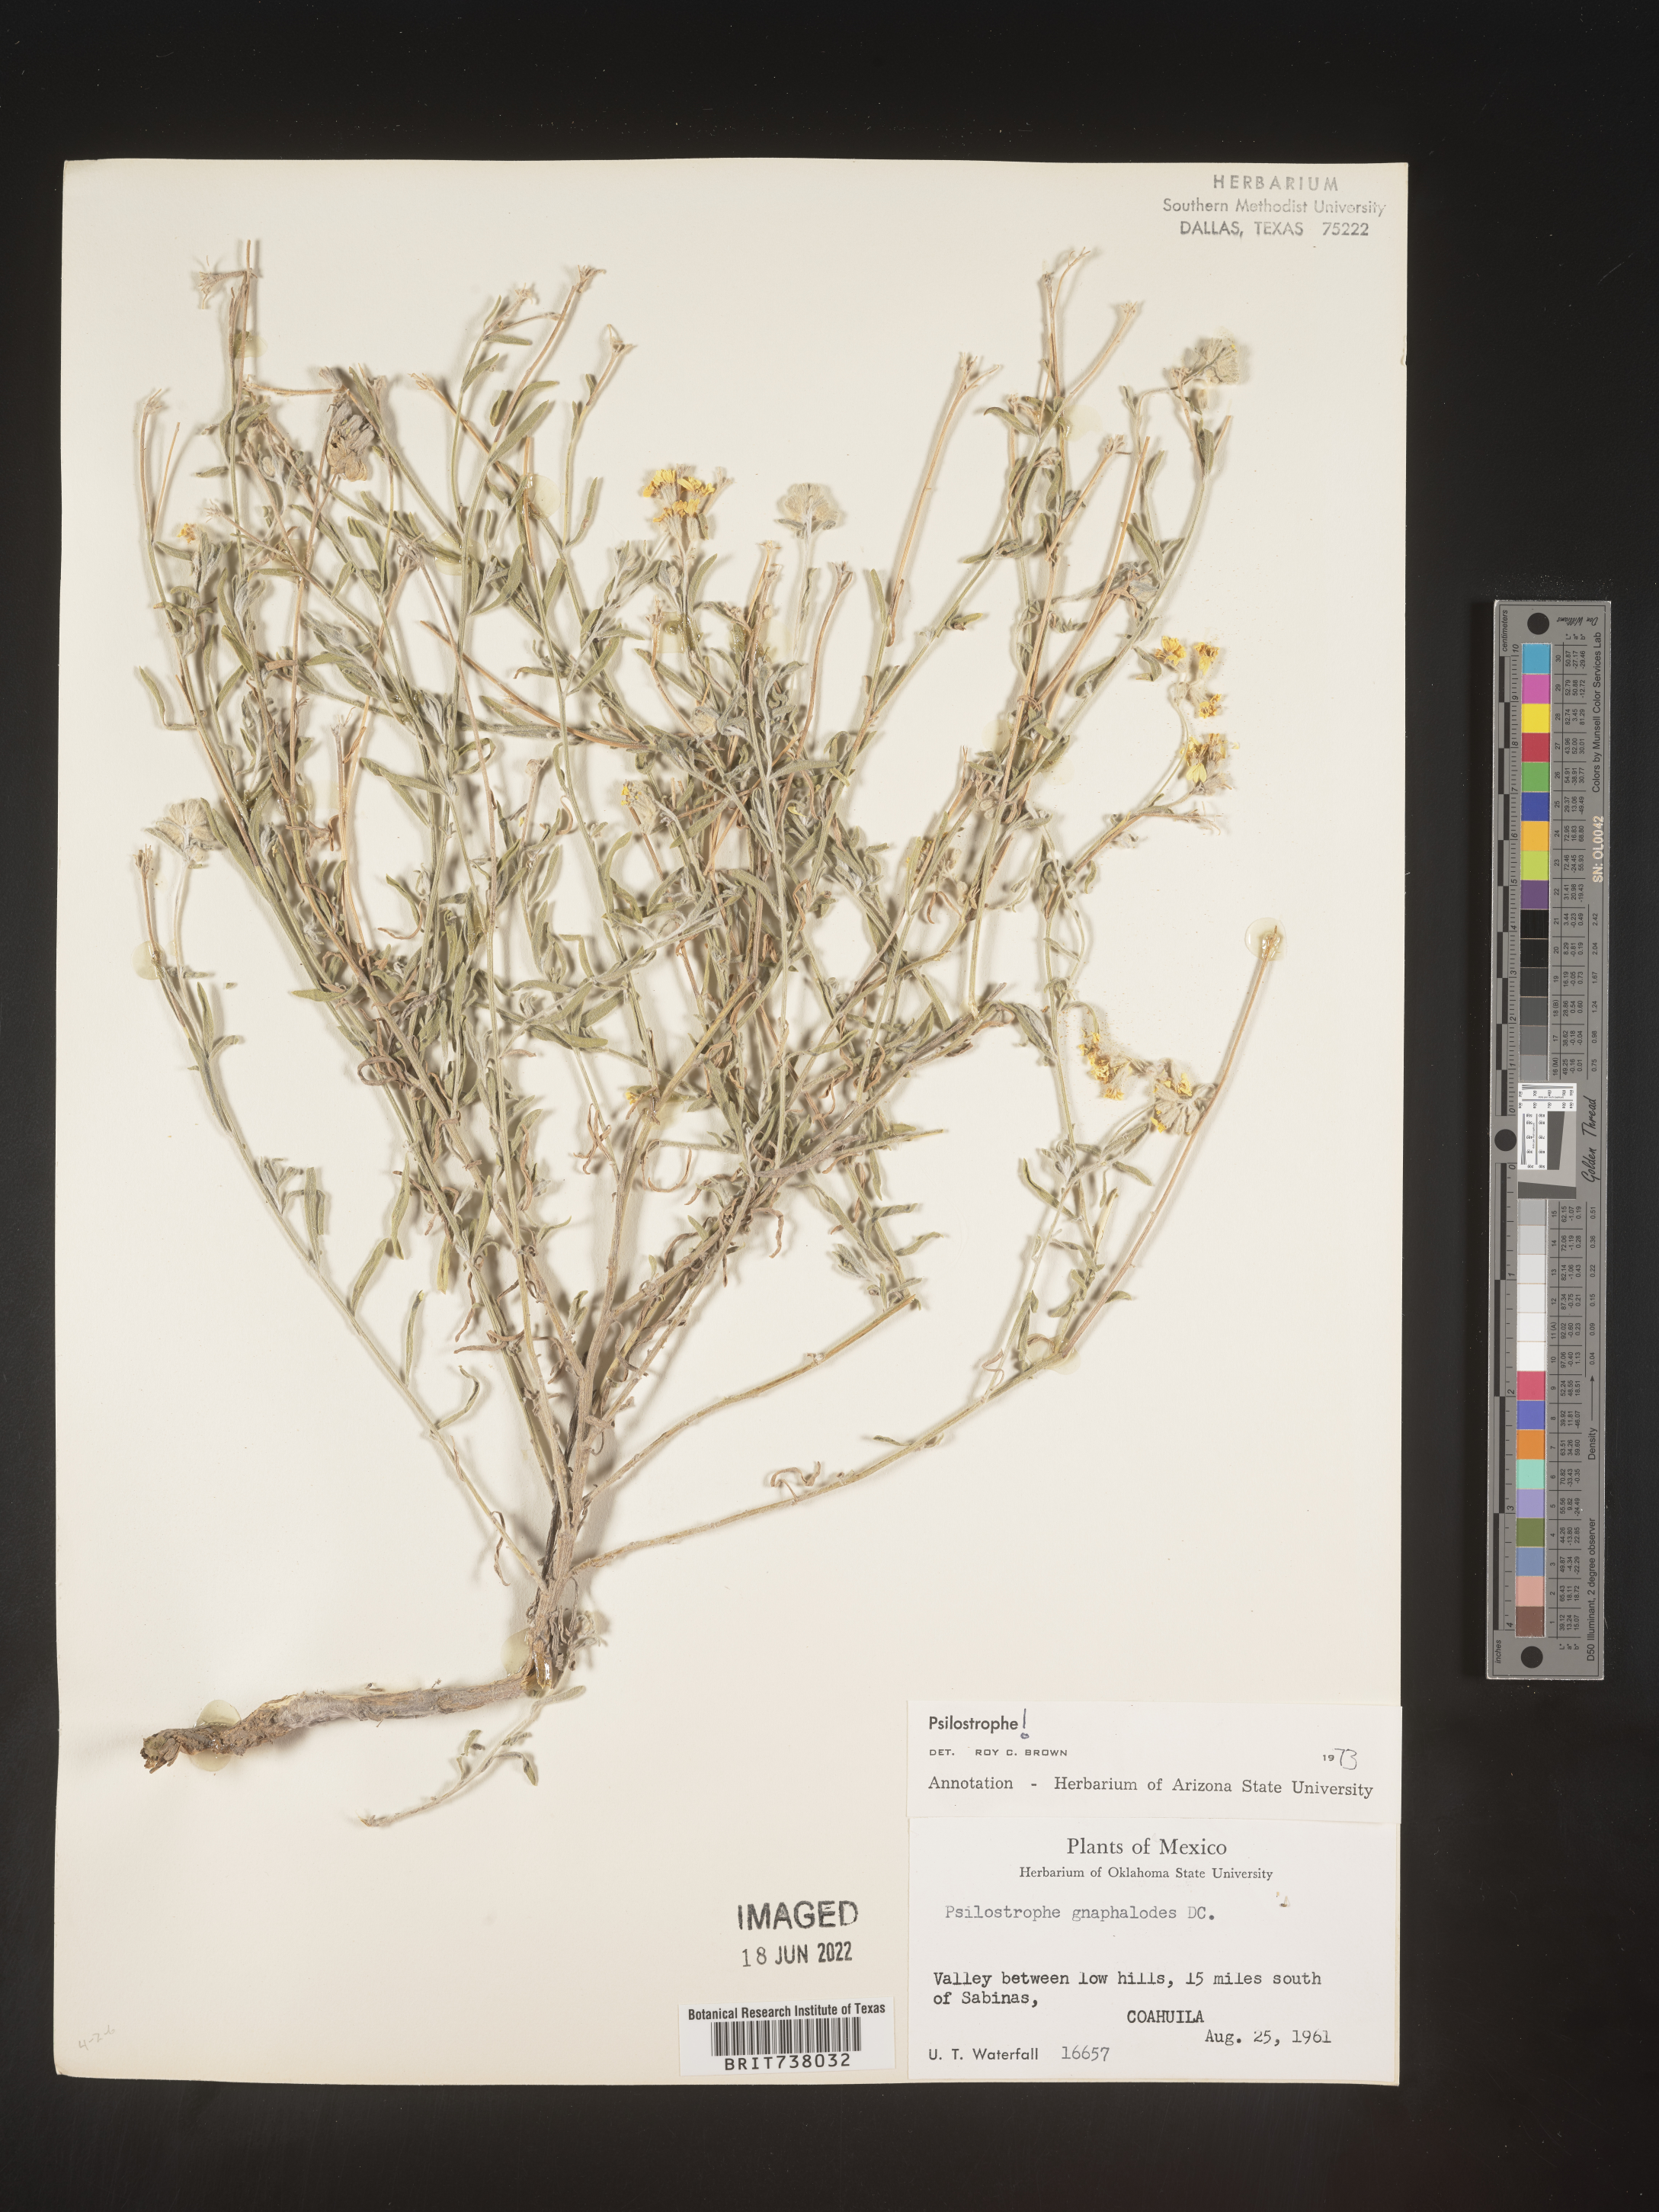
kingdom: Plantae
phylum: Tracheophyta
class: Magnoliopsida
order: Asterales
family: Asteraceae
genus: Psilostrophe
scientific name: Psilostrophe
